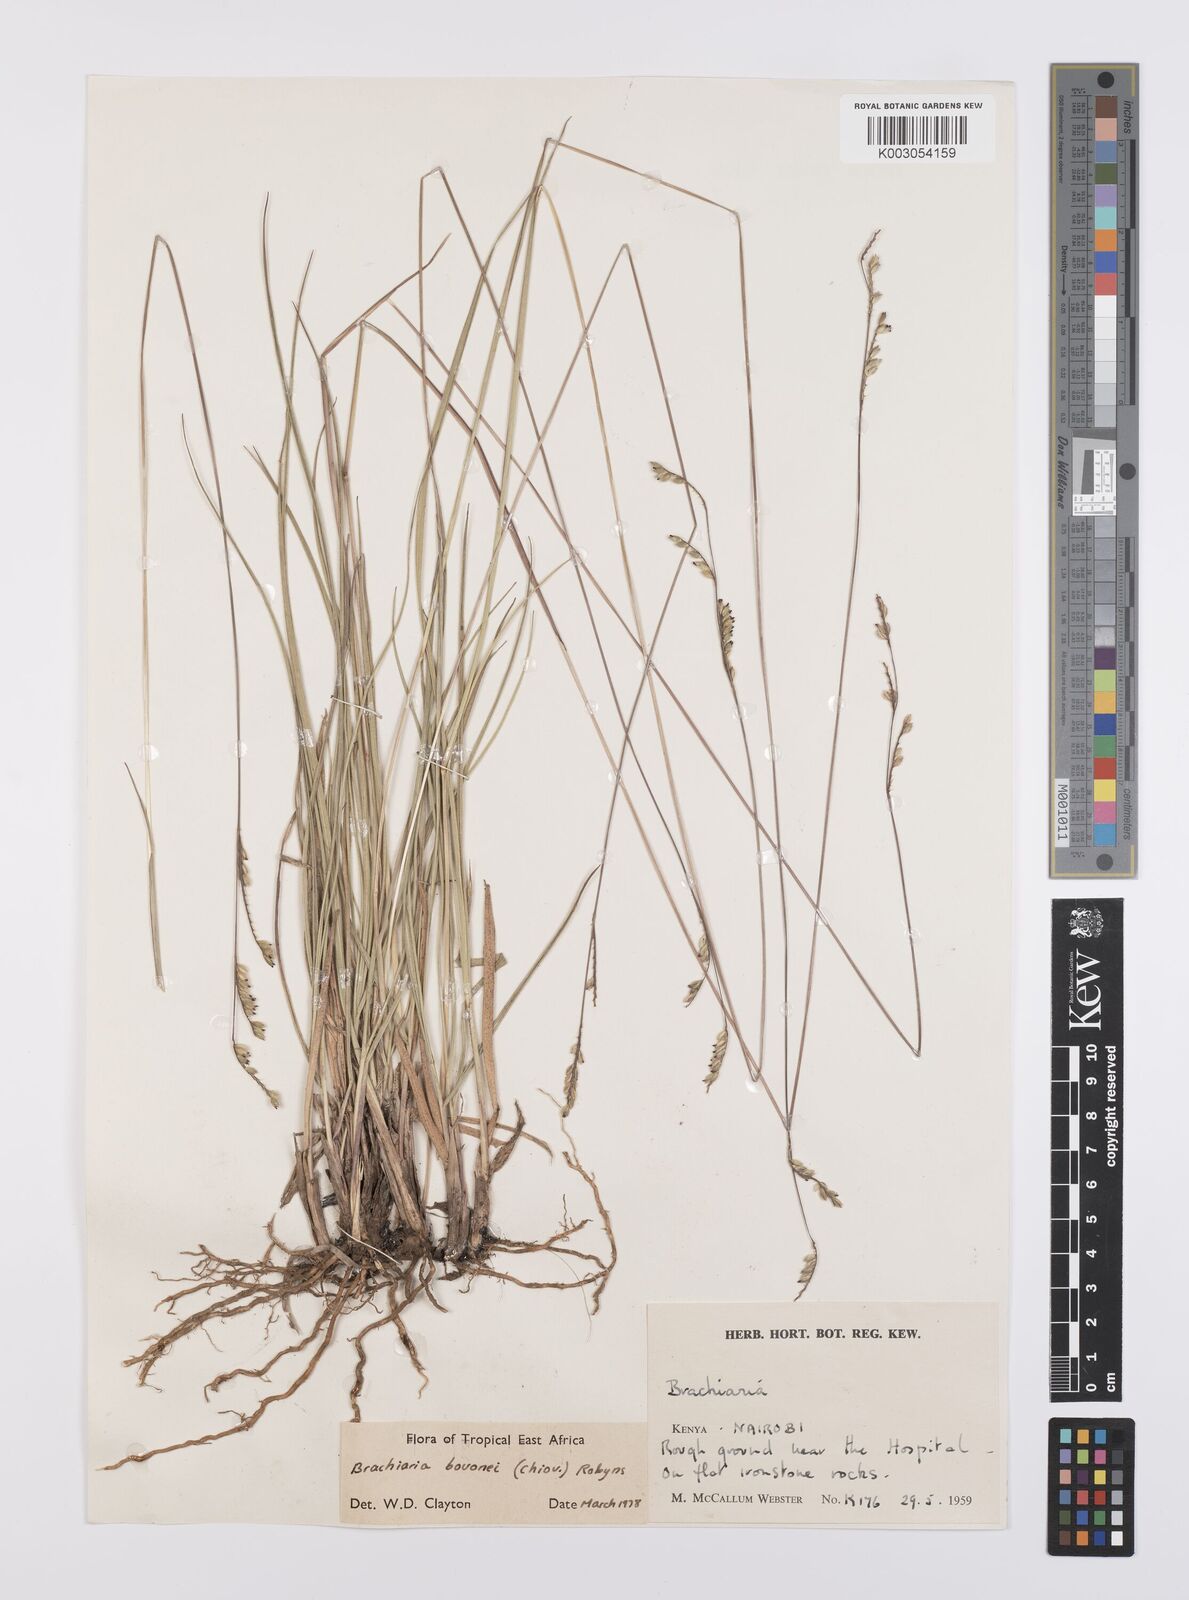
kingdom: Plantae
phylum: Tracheophyta
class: Liliopsida
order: Poales
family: Poaceae
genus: Urochloa
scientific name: Urochloa bovonei
